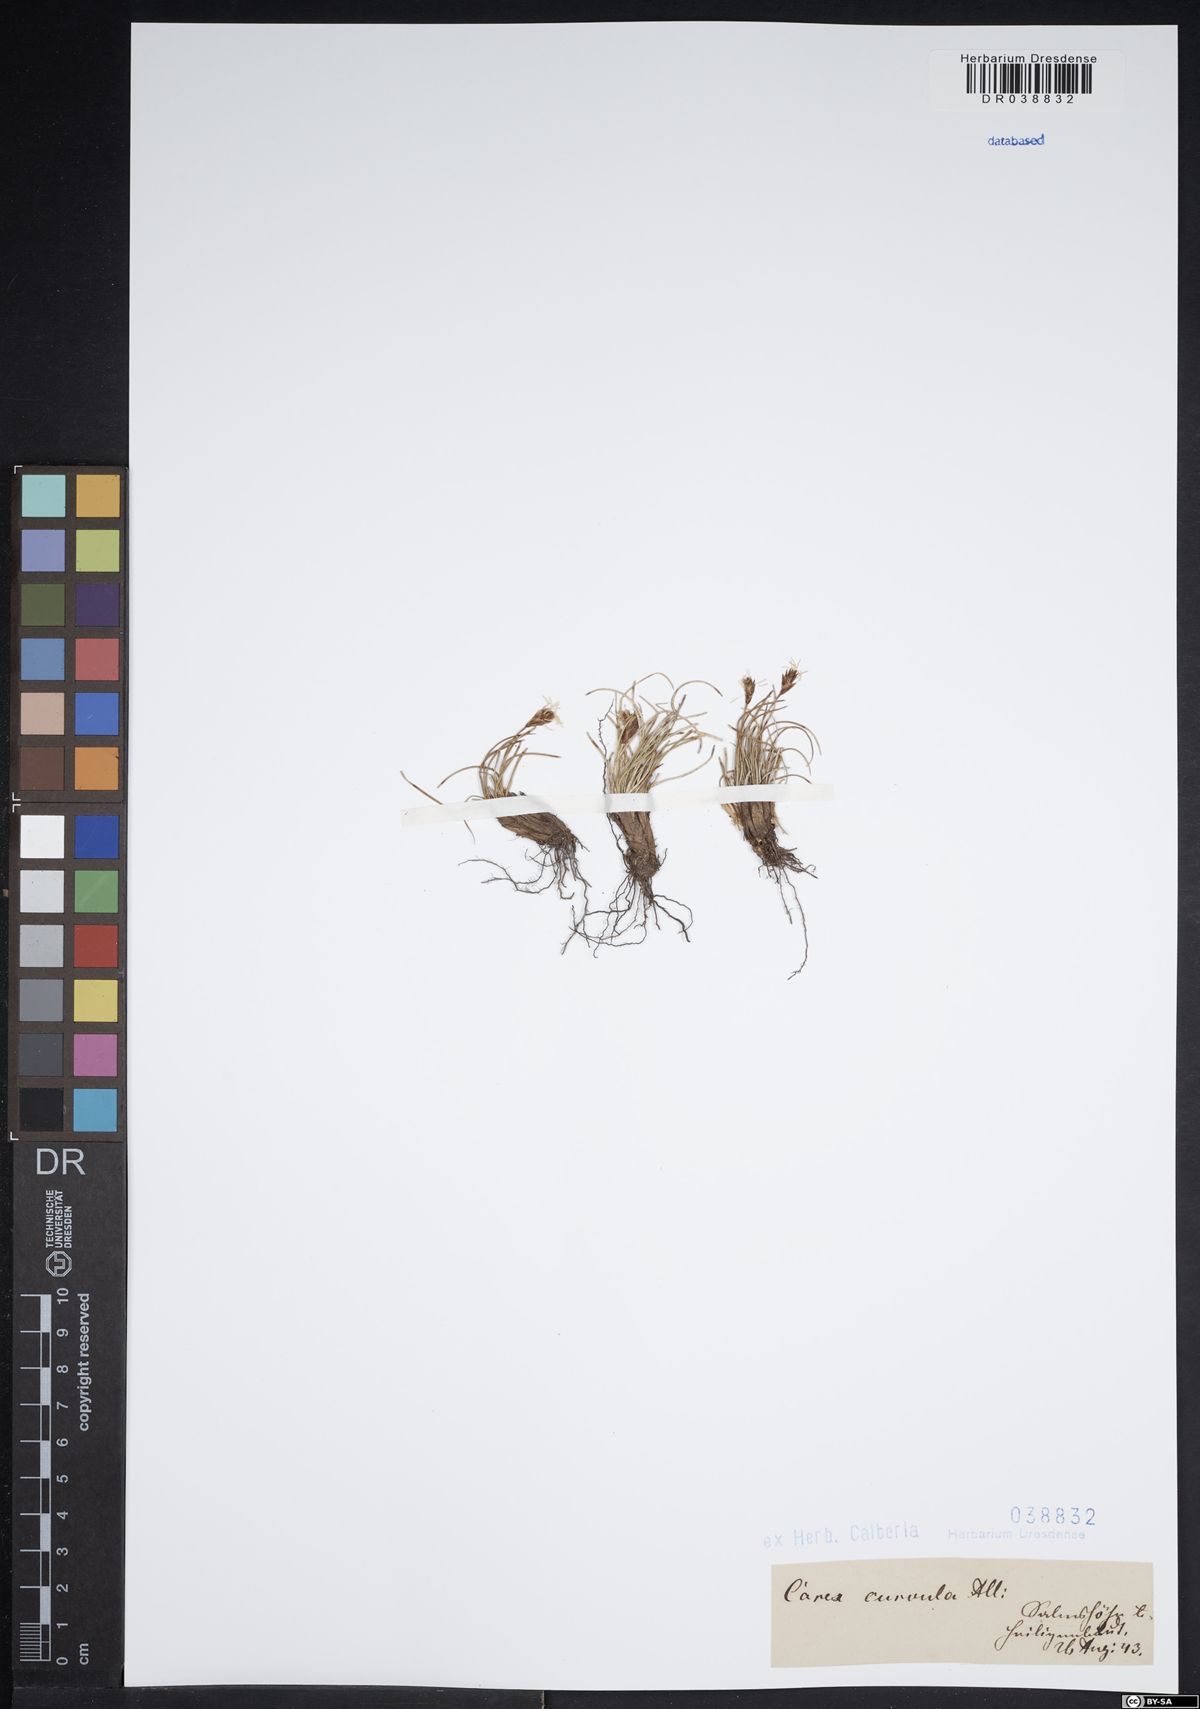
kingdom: Plantae
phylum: Tracheophyta
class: Liliopsida
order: Poales
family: Cyperaceae
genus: Carex
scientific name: Carex curvula
